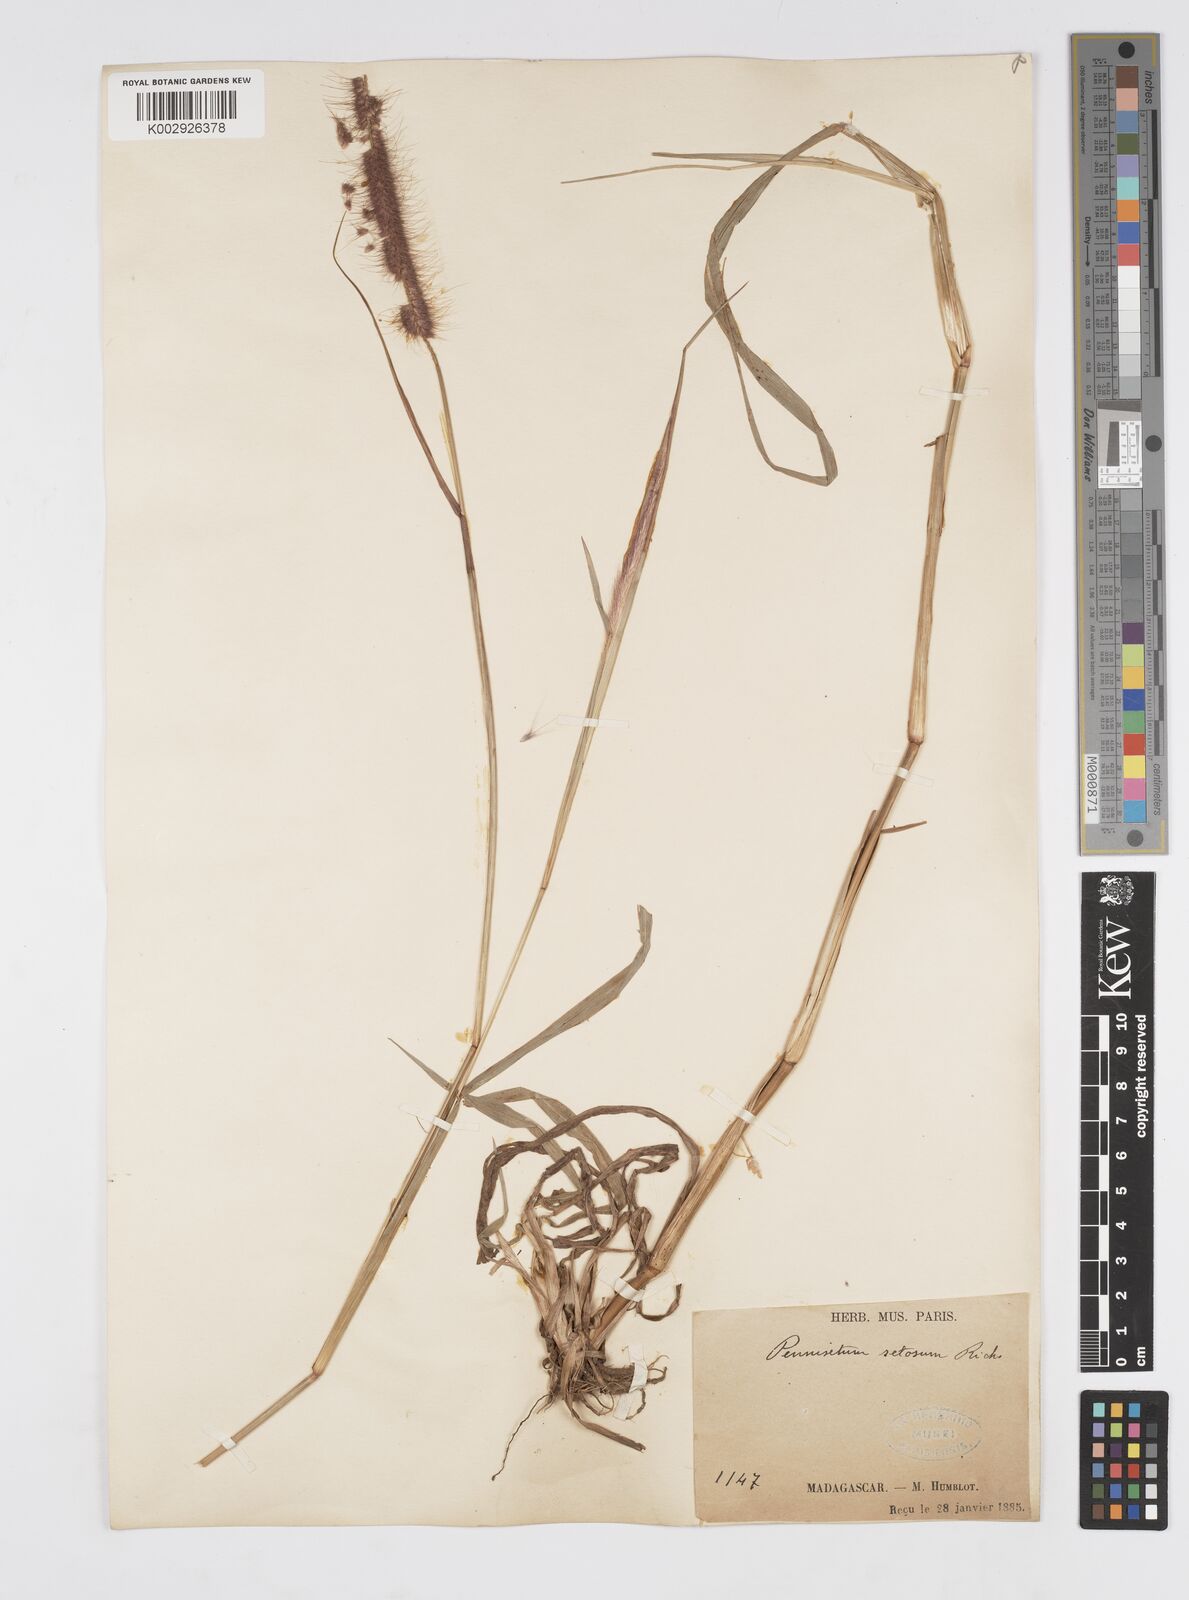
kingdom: Plantae
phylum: Tracheophyta
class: Liliopsida
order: Poales
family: Poaceae
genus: Setaria
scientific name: Setaria parviflora
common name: Knotroot bristle-grass
